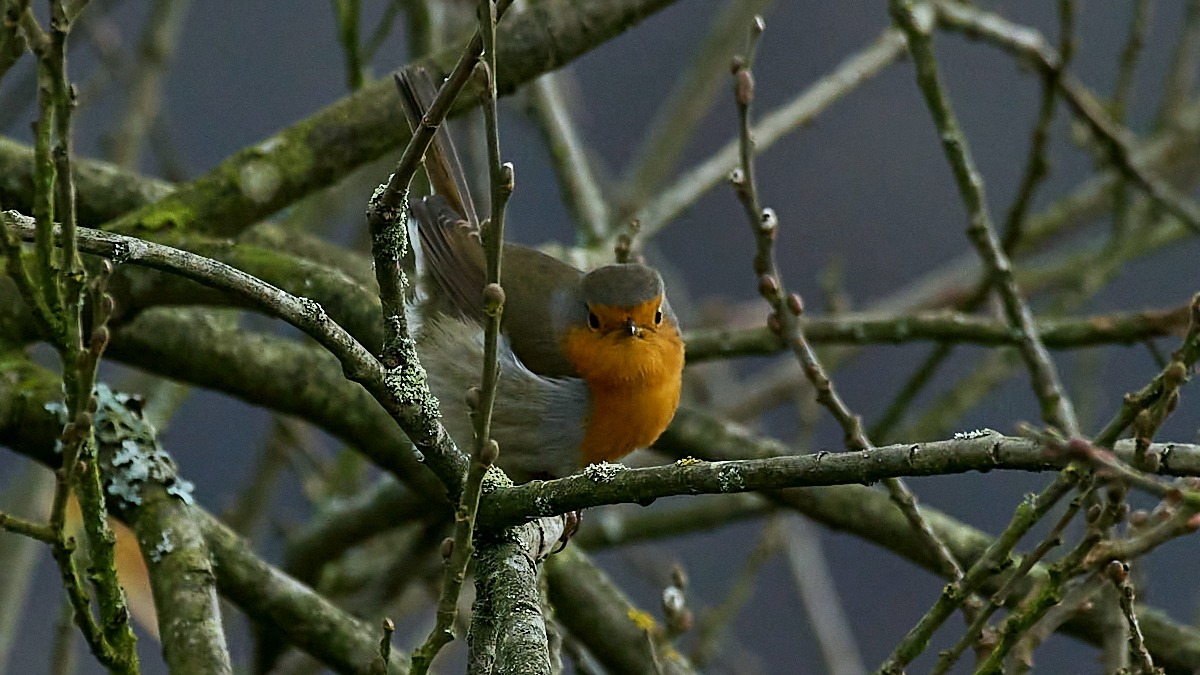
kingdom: Animalia
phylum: Chordata
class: Aves
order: Passeriformes
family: Muscicapidae
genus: Erithacus
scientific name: Erithacus rubecula
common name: Rødhals/rødkælk
